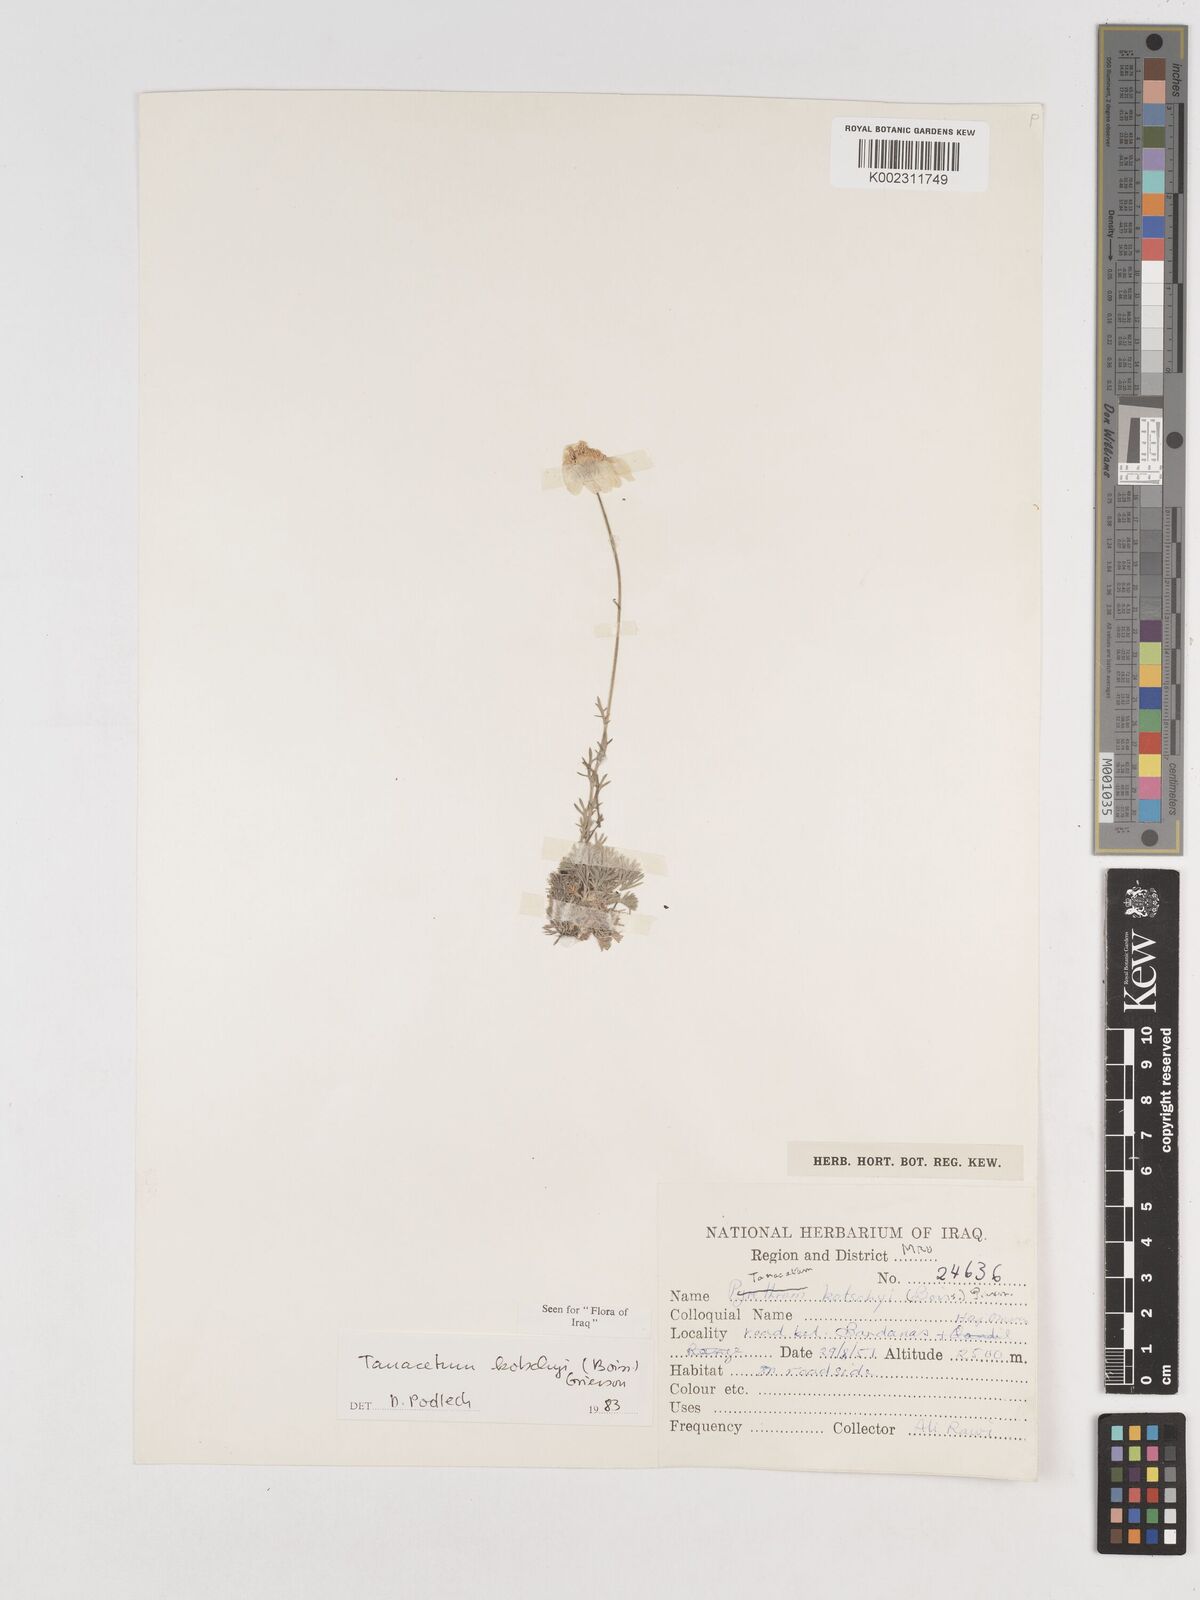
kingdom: Plantae
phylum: Tracheophyta
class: Magnoliopsida
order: Asterales
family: Asteraceae
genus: Tanacetum
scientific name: Tanacetum polycephalum
